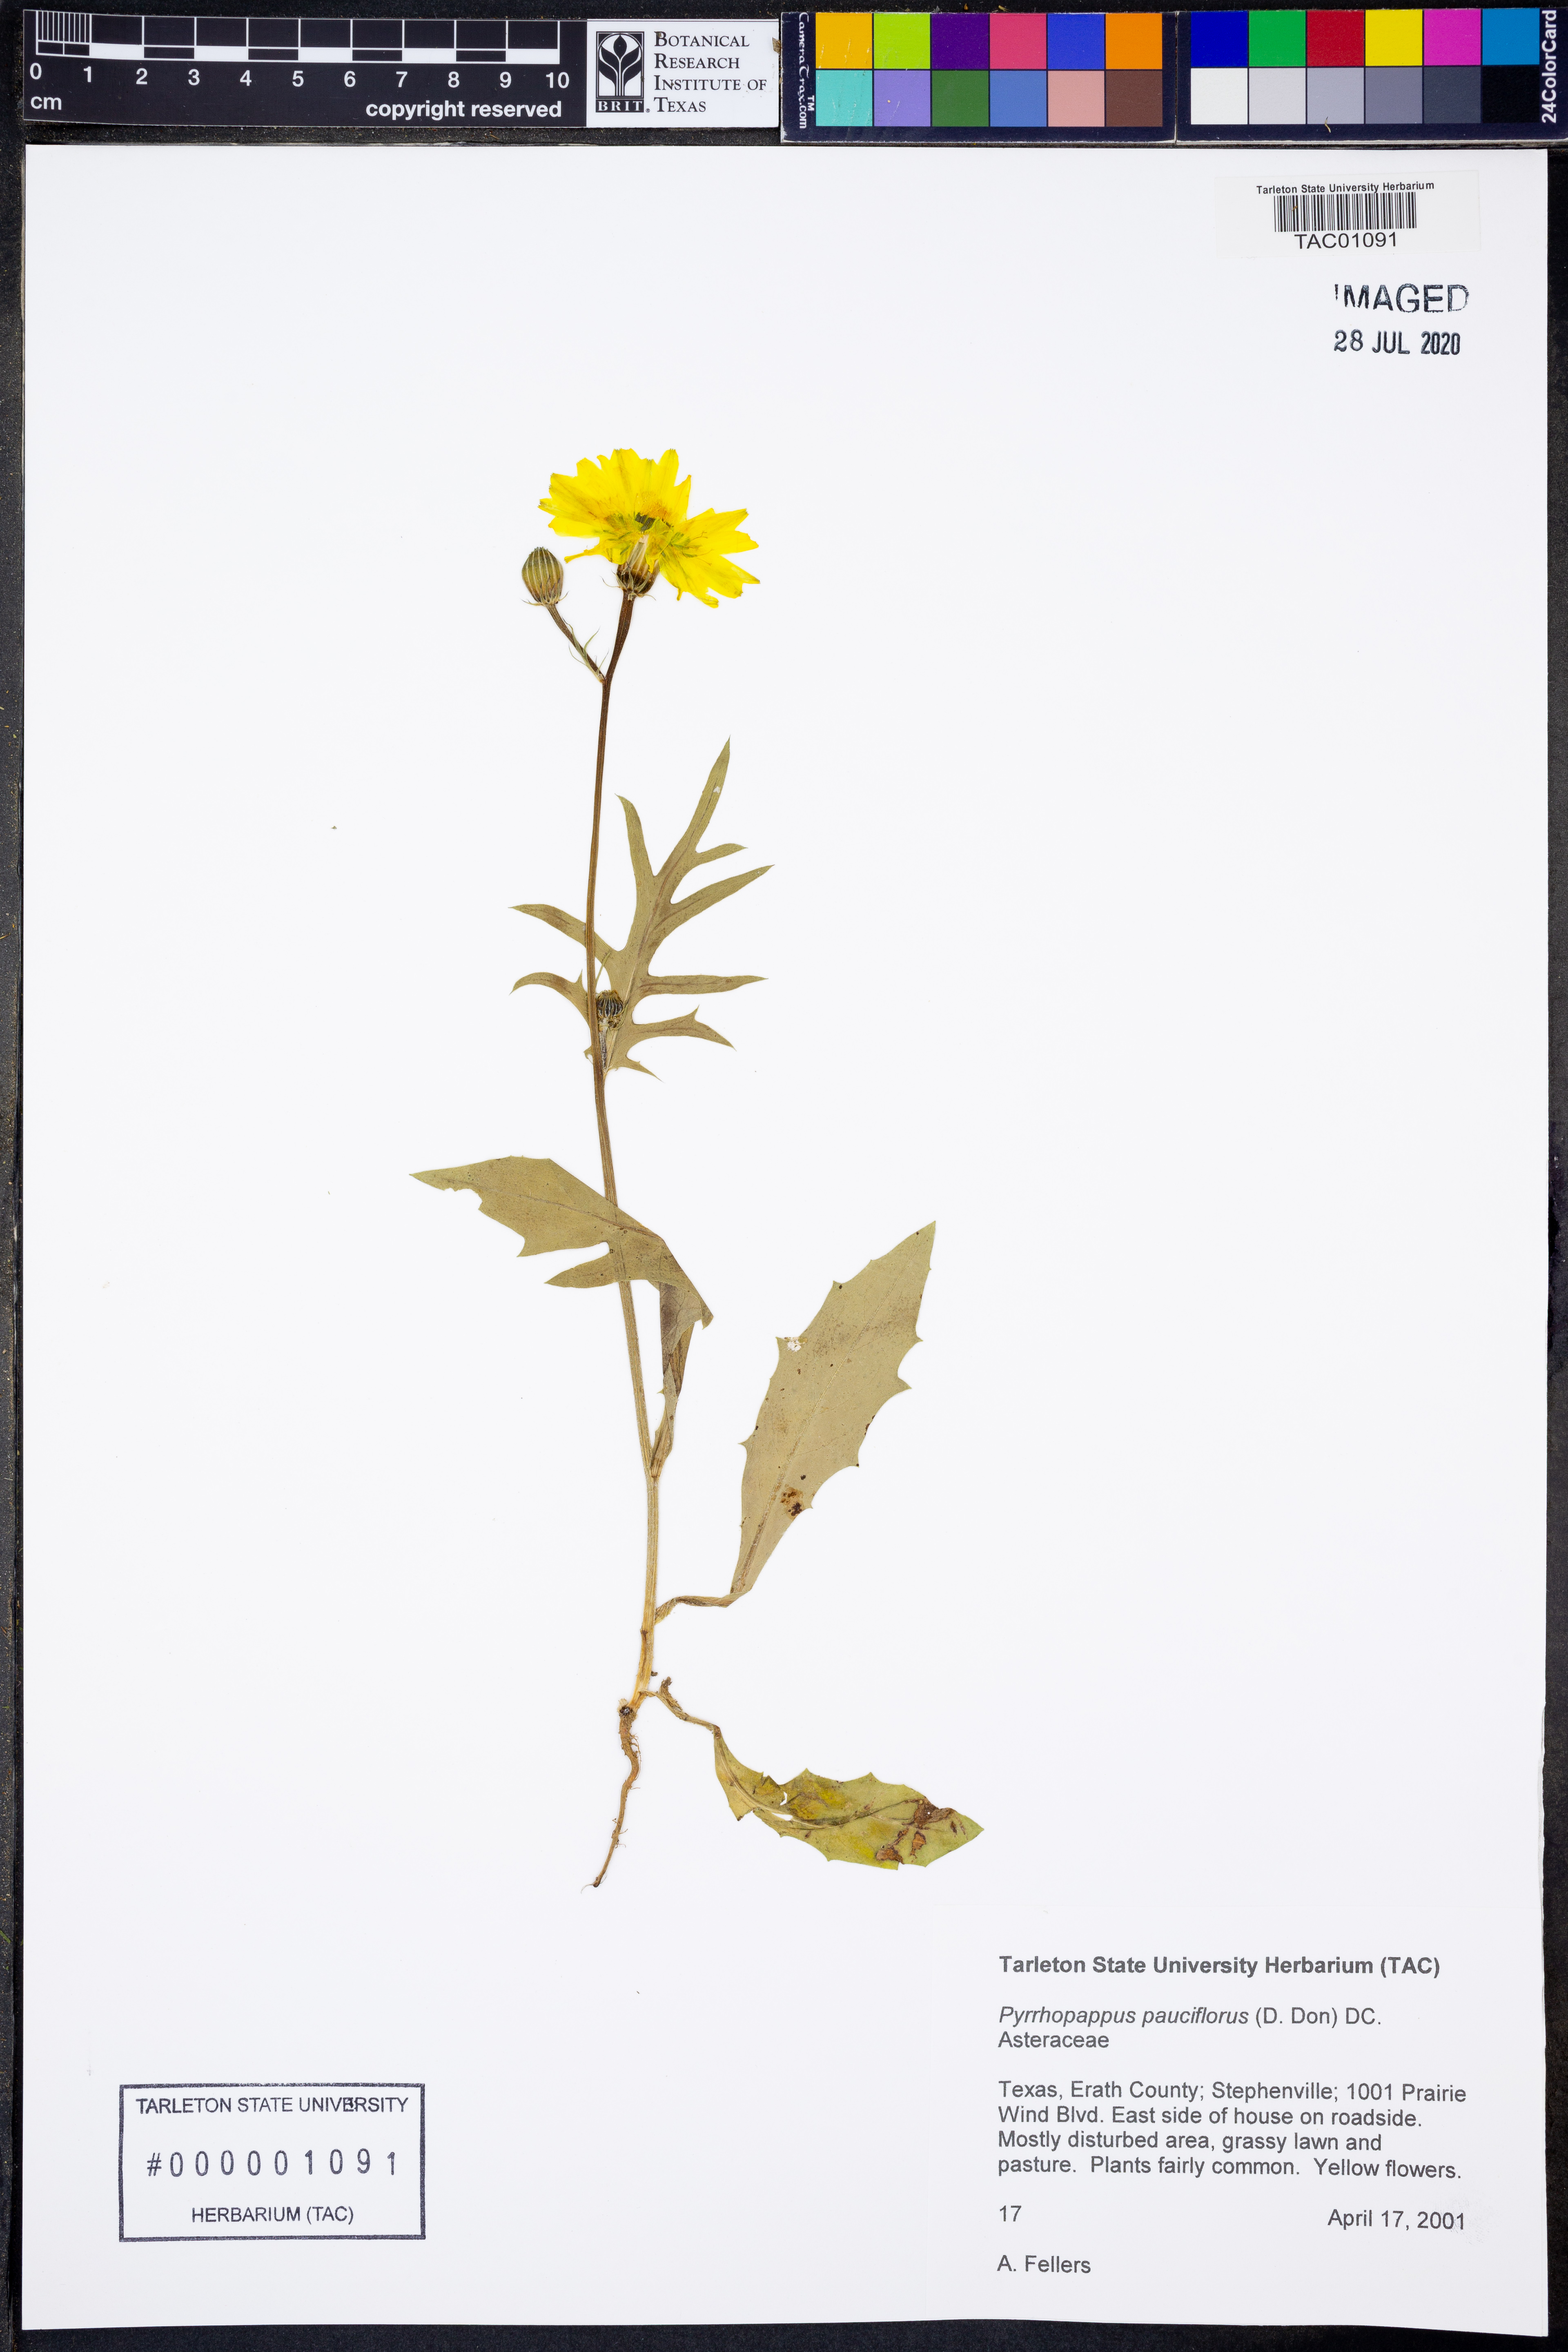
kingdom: Plantae
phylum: Tracheophyta
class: Magnoliopsida
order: Asterales
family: Asteraceae
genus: Pyrrhopappus
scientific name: Pyrrhopappus pauciflorus
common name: Texas false dandelion
